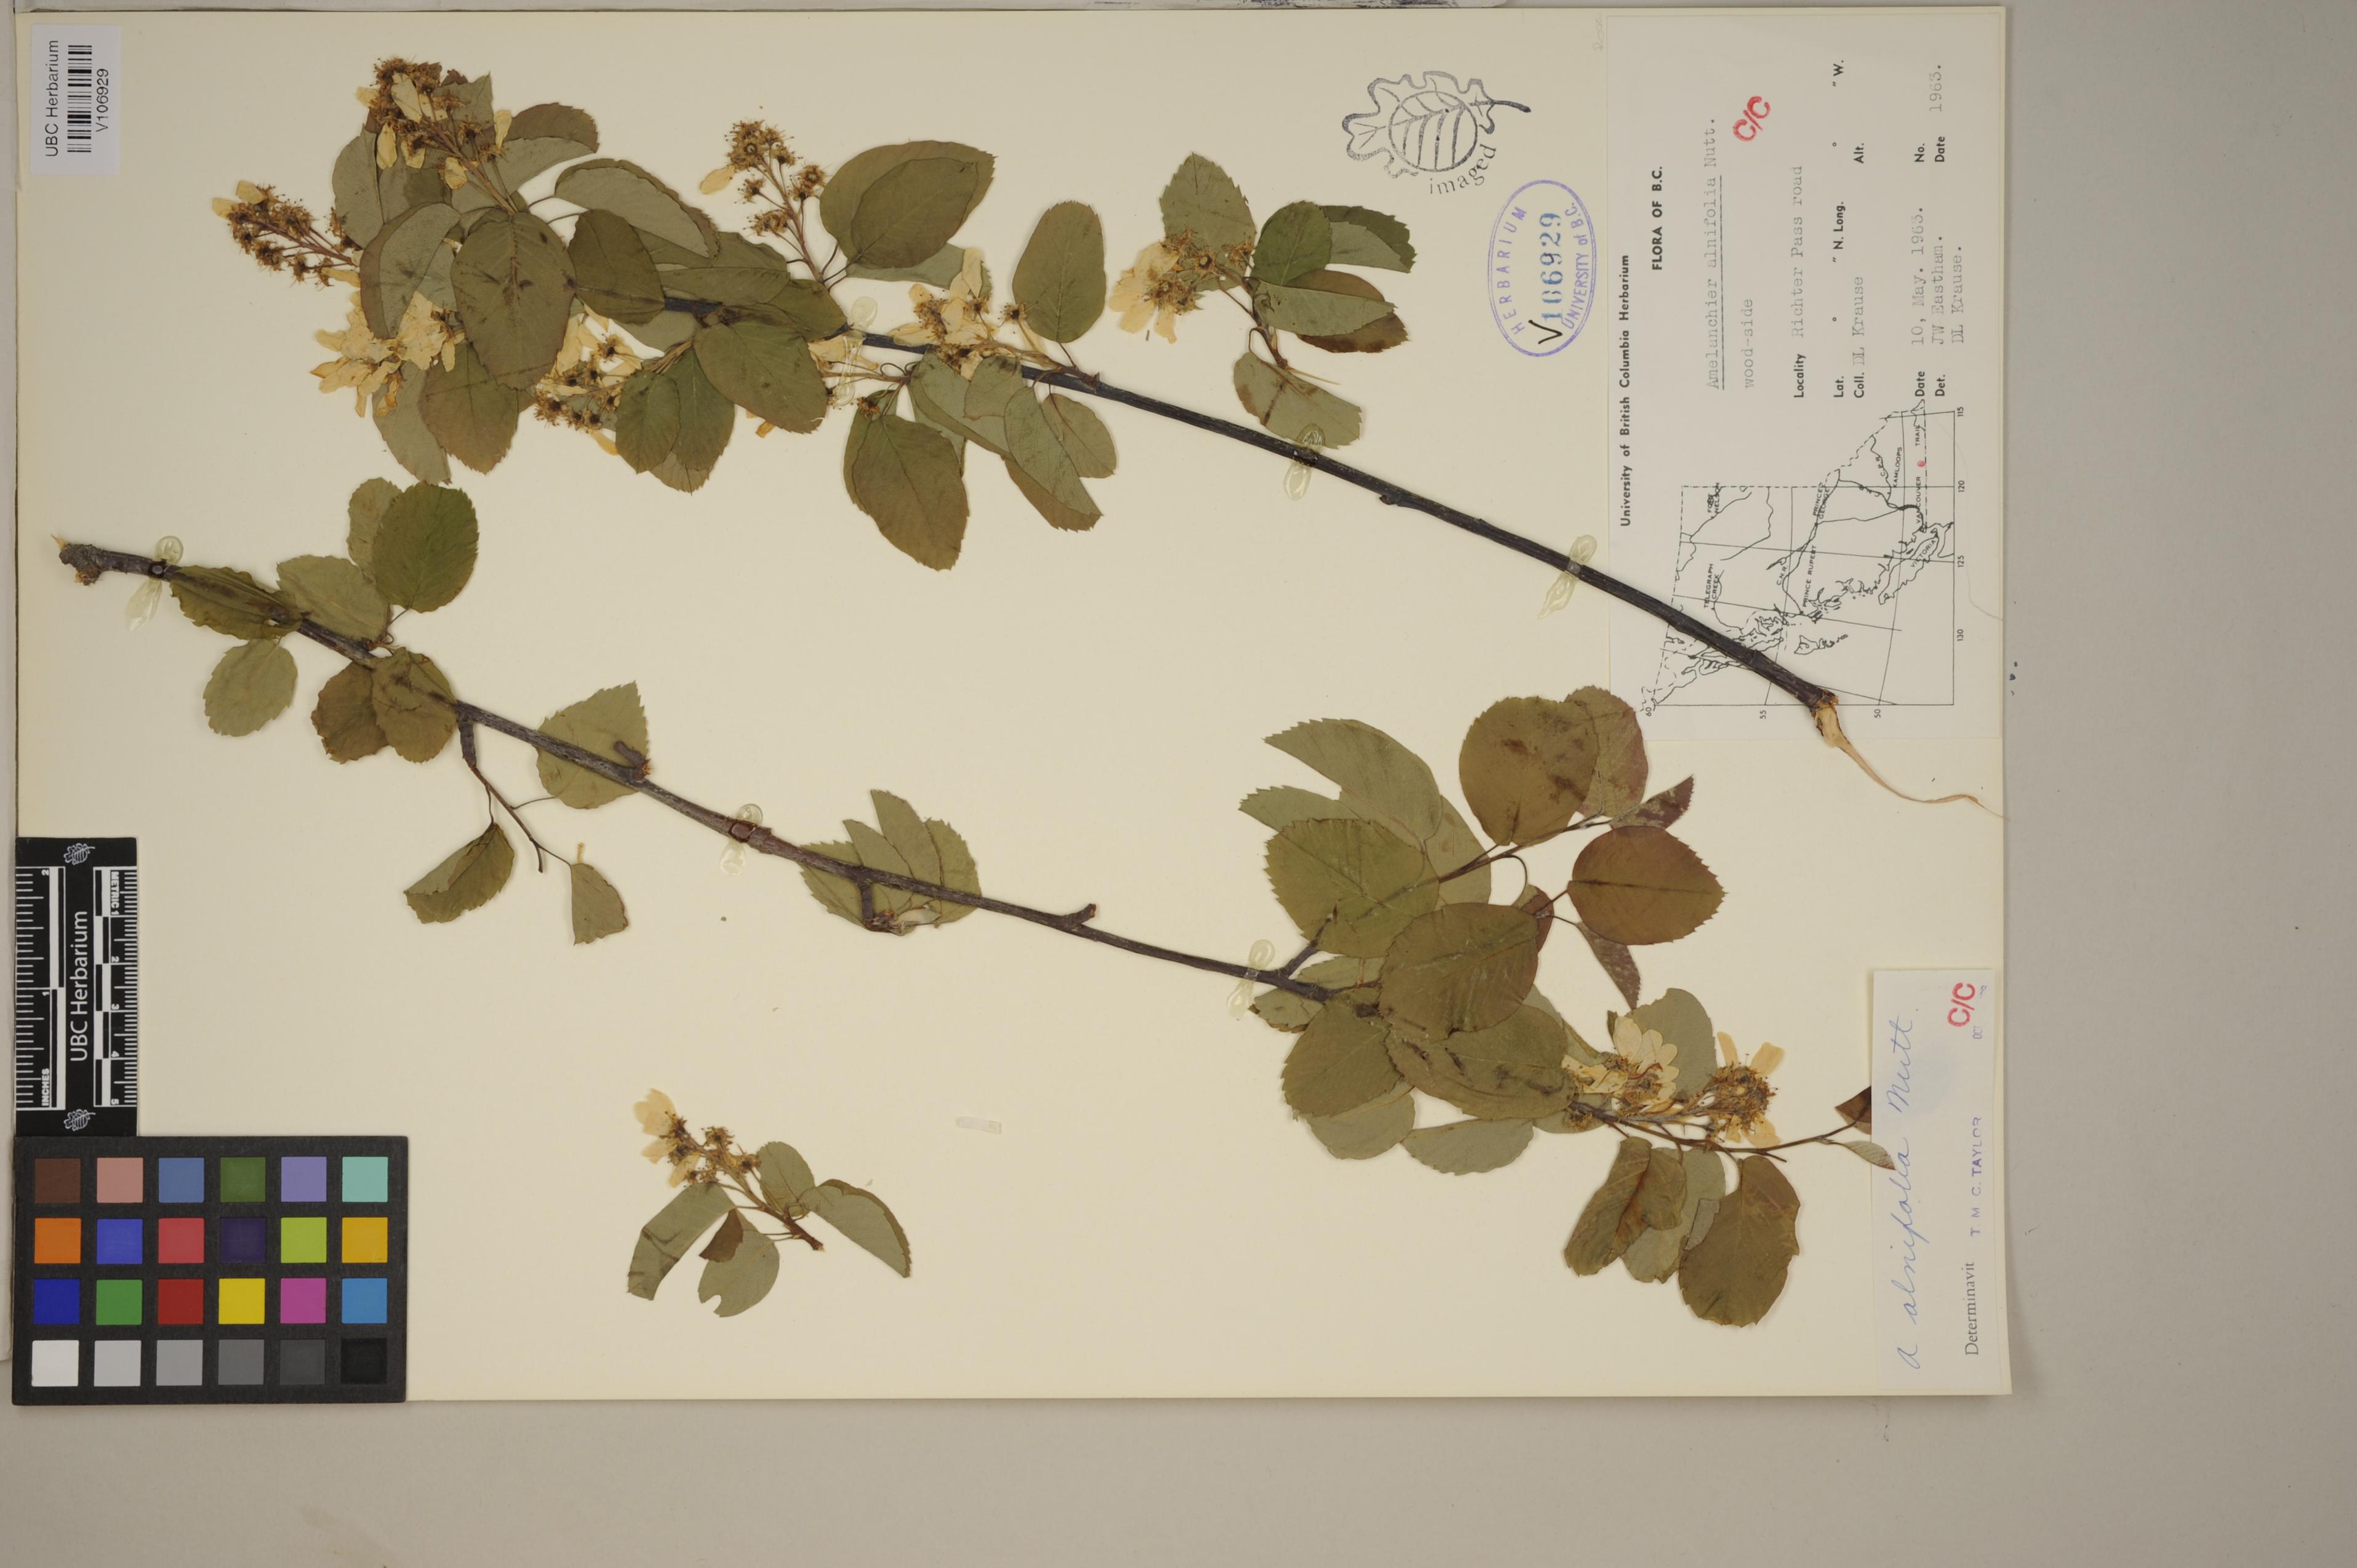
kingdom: Plantae
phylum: Tracheophyta
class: Magnoliopsida
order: Rosales
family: Rosaceae
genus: Amelanchier
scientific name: Amelanchier alnifolia
